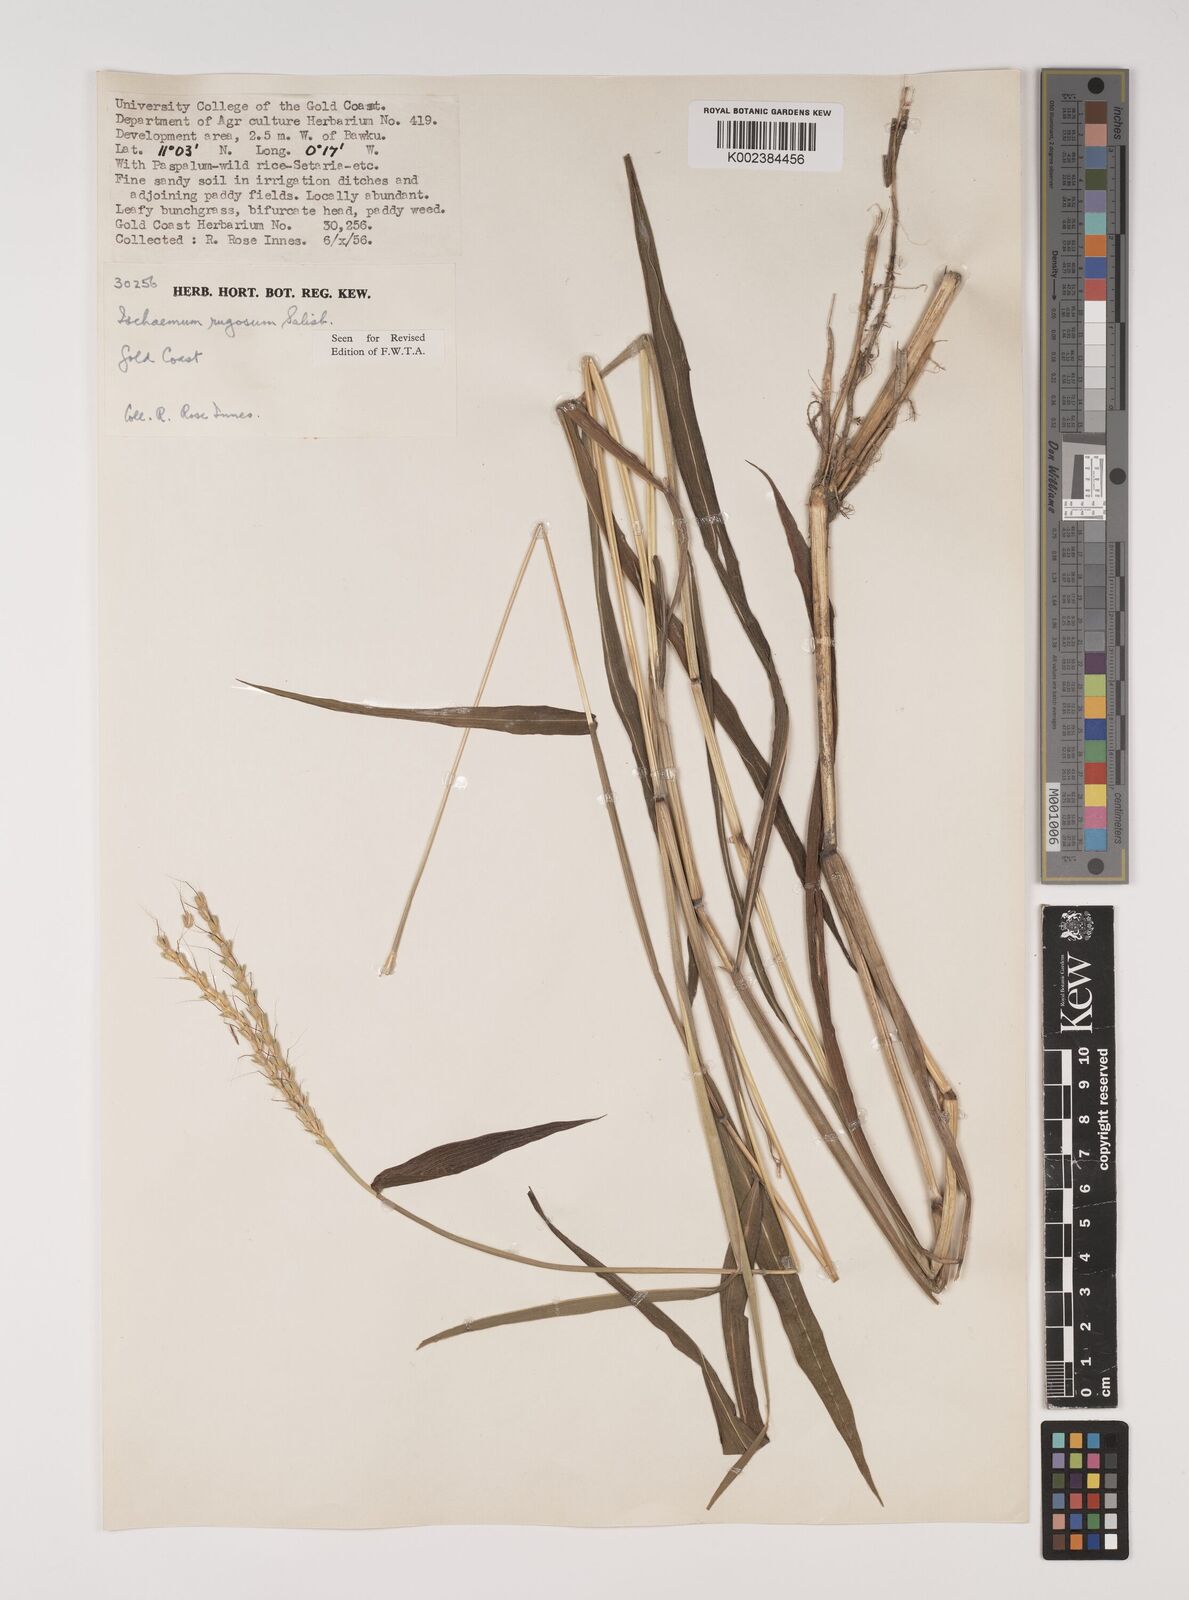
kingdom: Plantae
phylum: Tracheophyta
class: Liliopsida
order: Poales
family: Poaceae
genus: Ischaemum
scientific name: Ischaemum rugosum
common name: Saramatta grass
